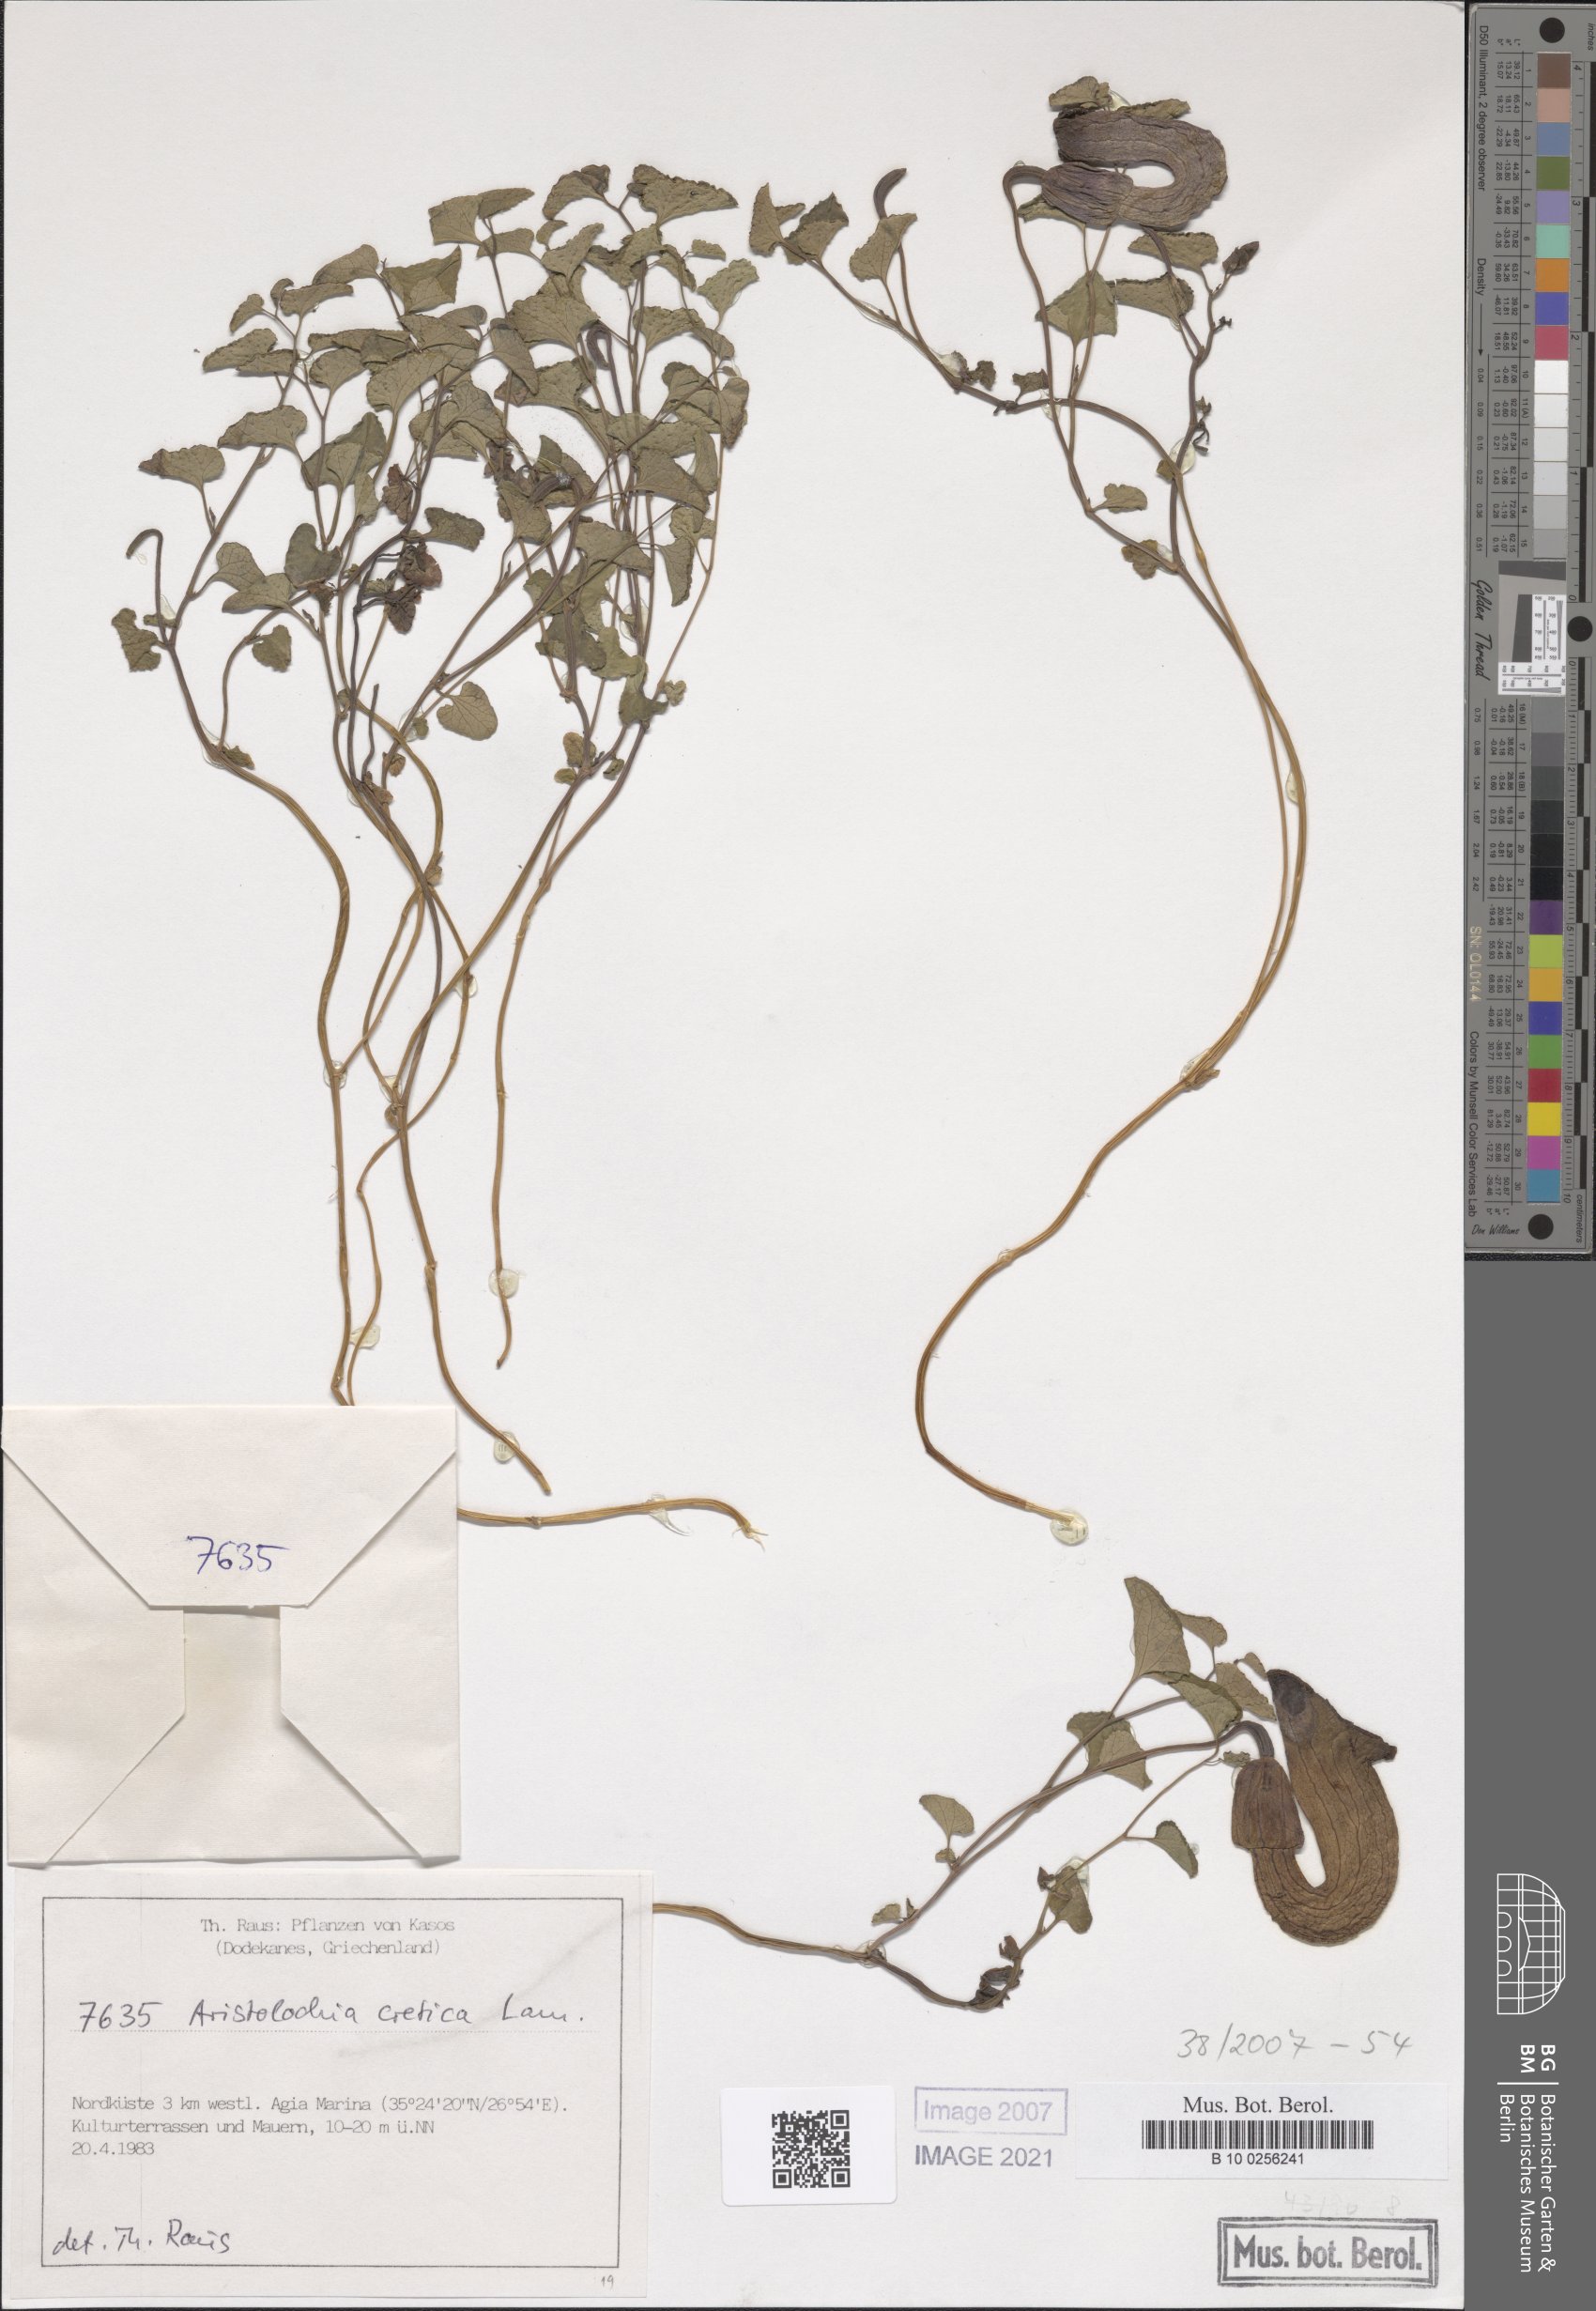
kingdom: Plantae
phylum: Tracheophyta
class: Magnoliopsida
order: Piperales
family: Aristolochiaceae
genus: Aristolochia
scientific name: Aristolochia cretica
